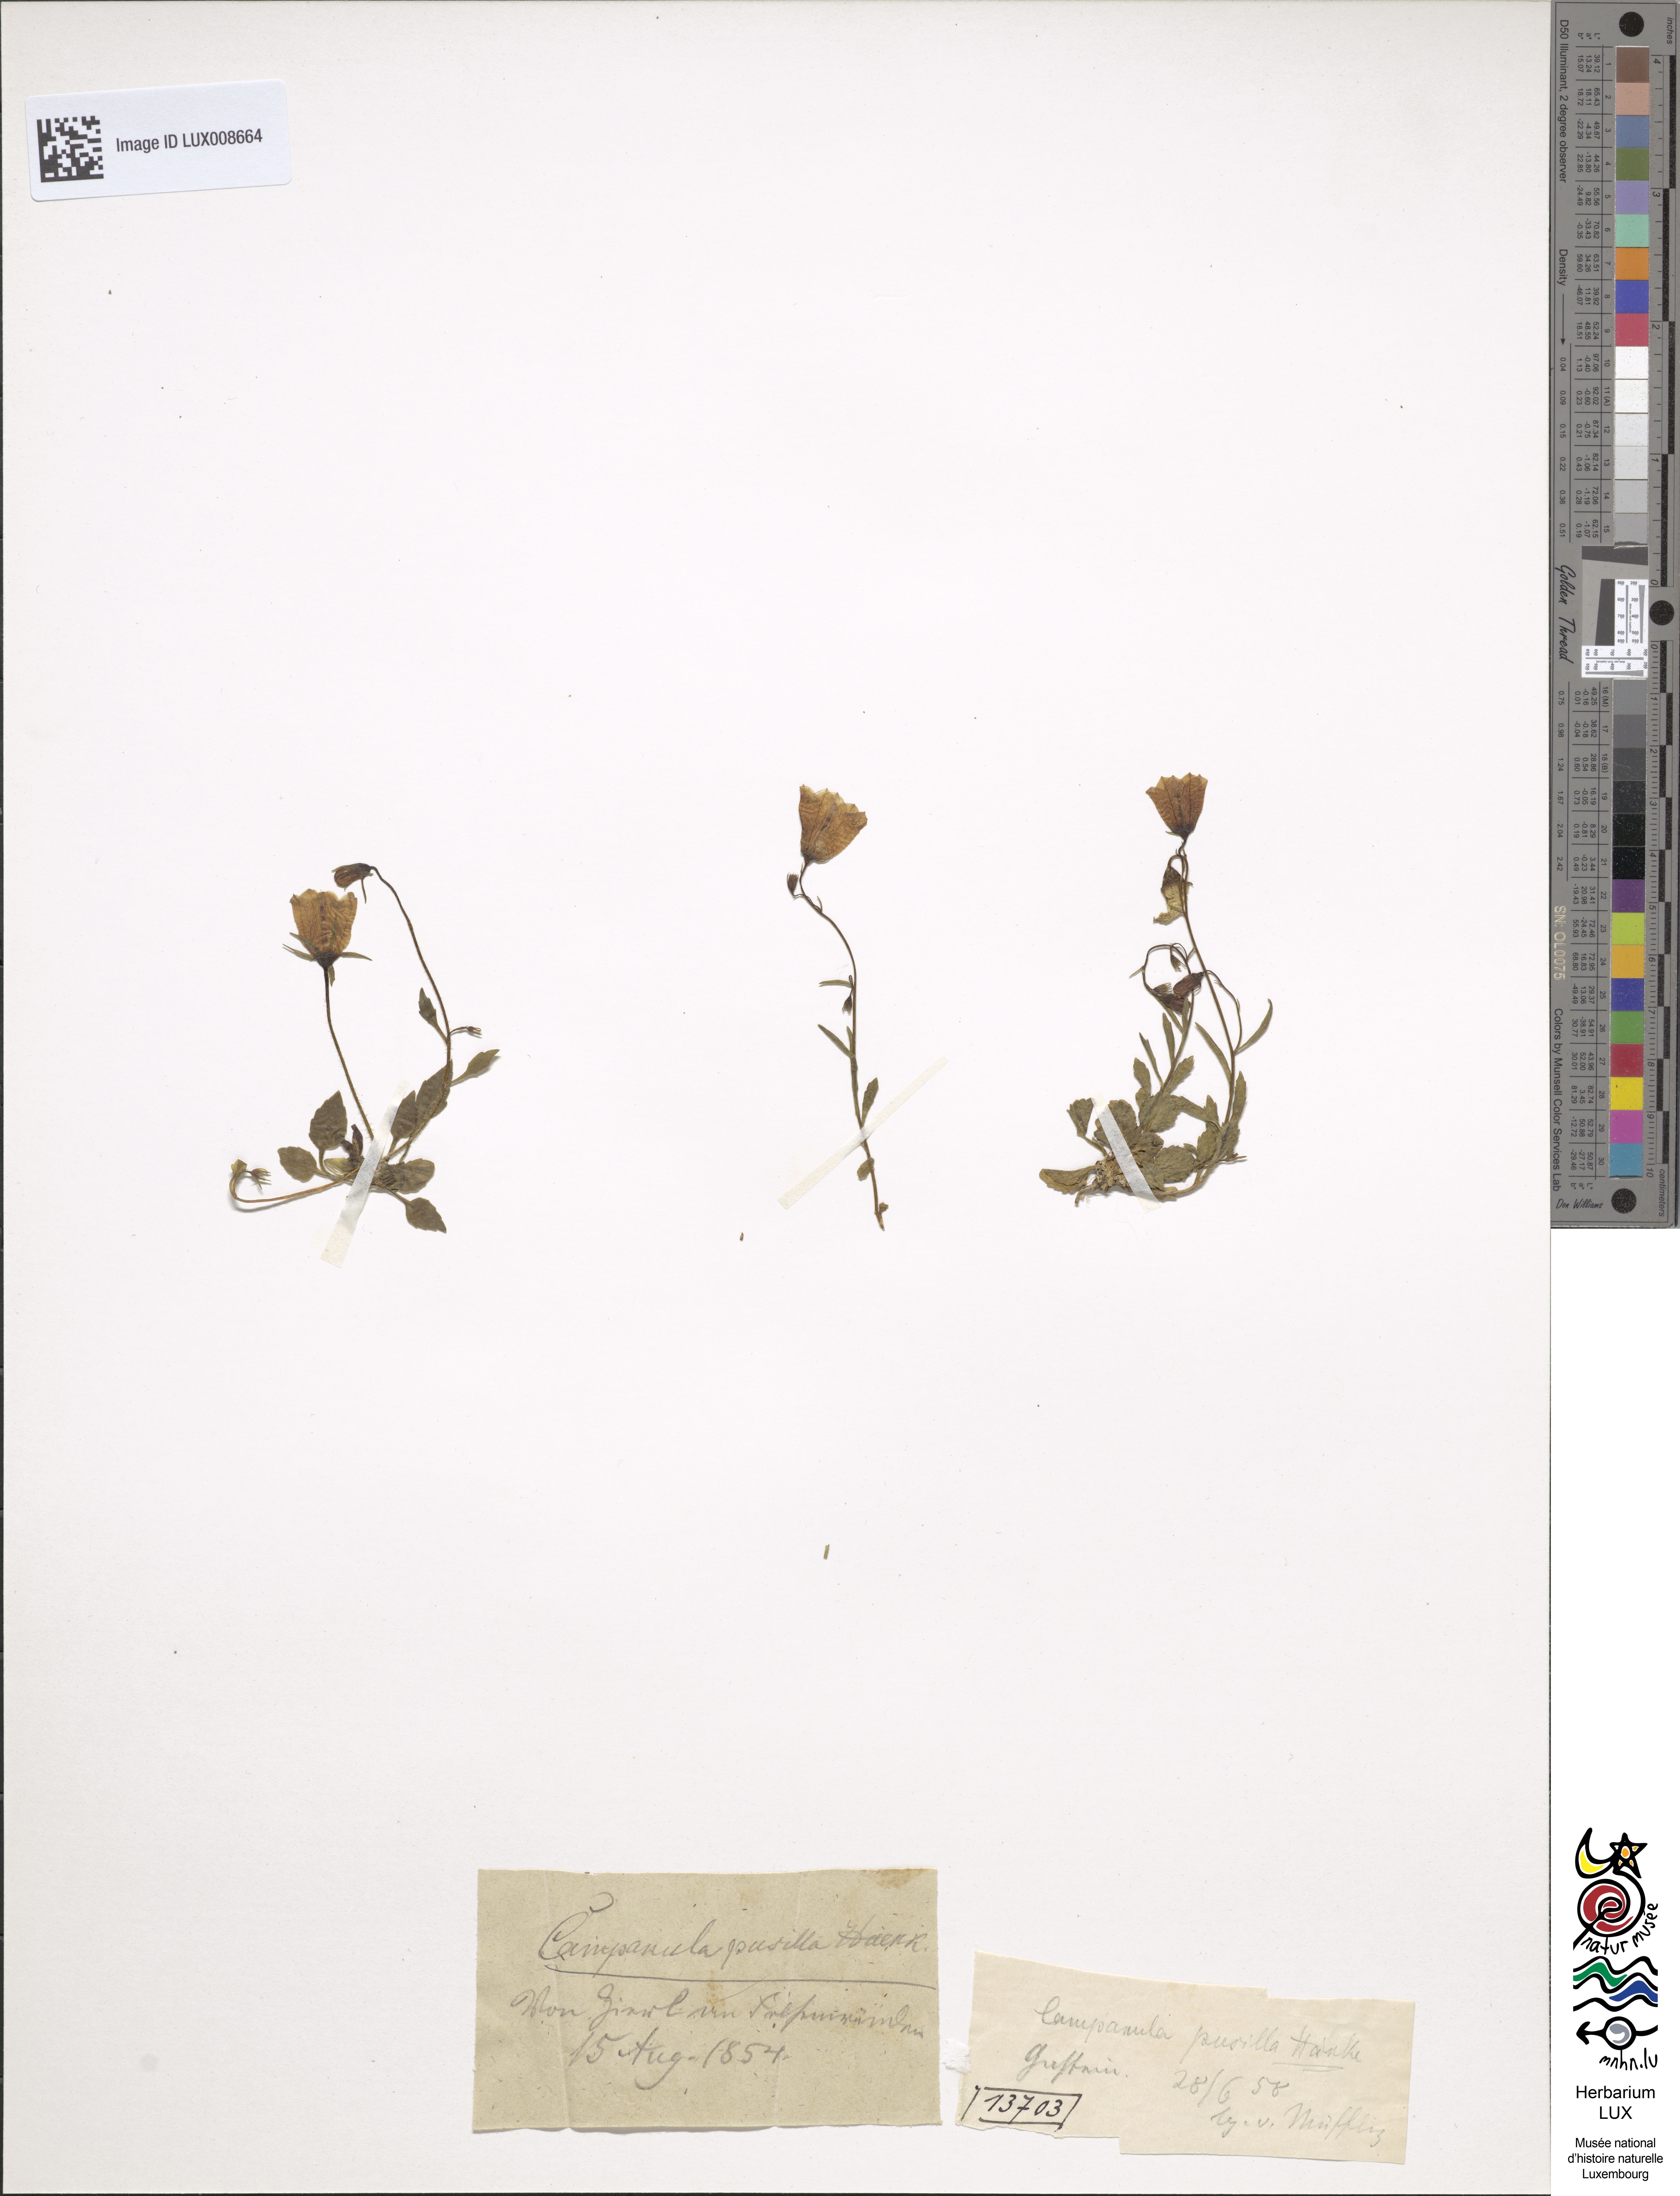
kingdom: Plantae
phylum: Tracheophyta
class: Magnoliopsida
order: Asterales
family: Campanulaceae
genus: Campanula
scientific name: Campanula cochleariifolia
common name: Fairies'-thimbles
